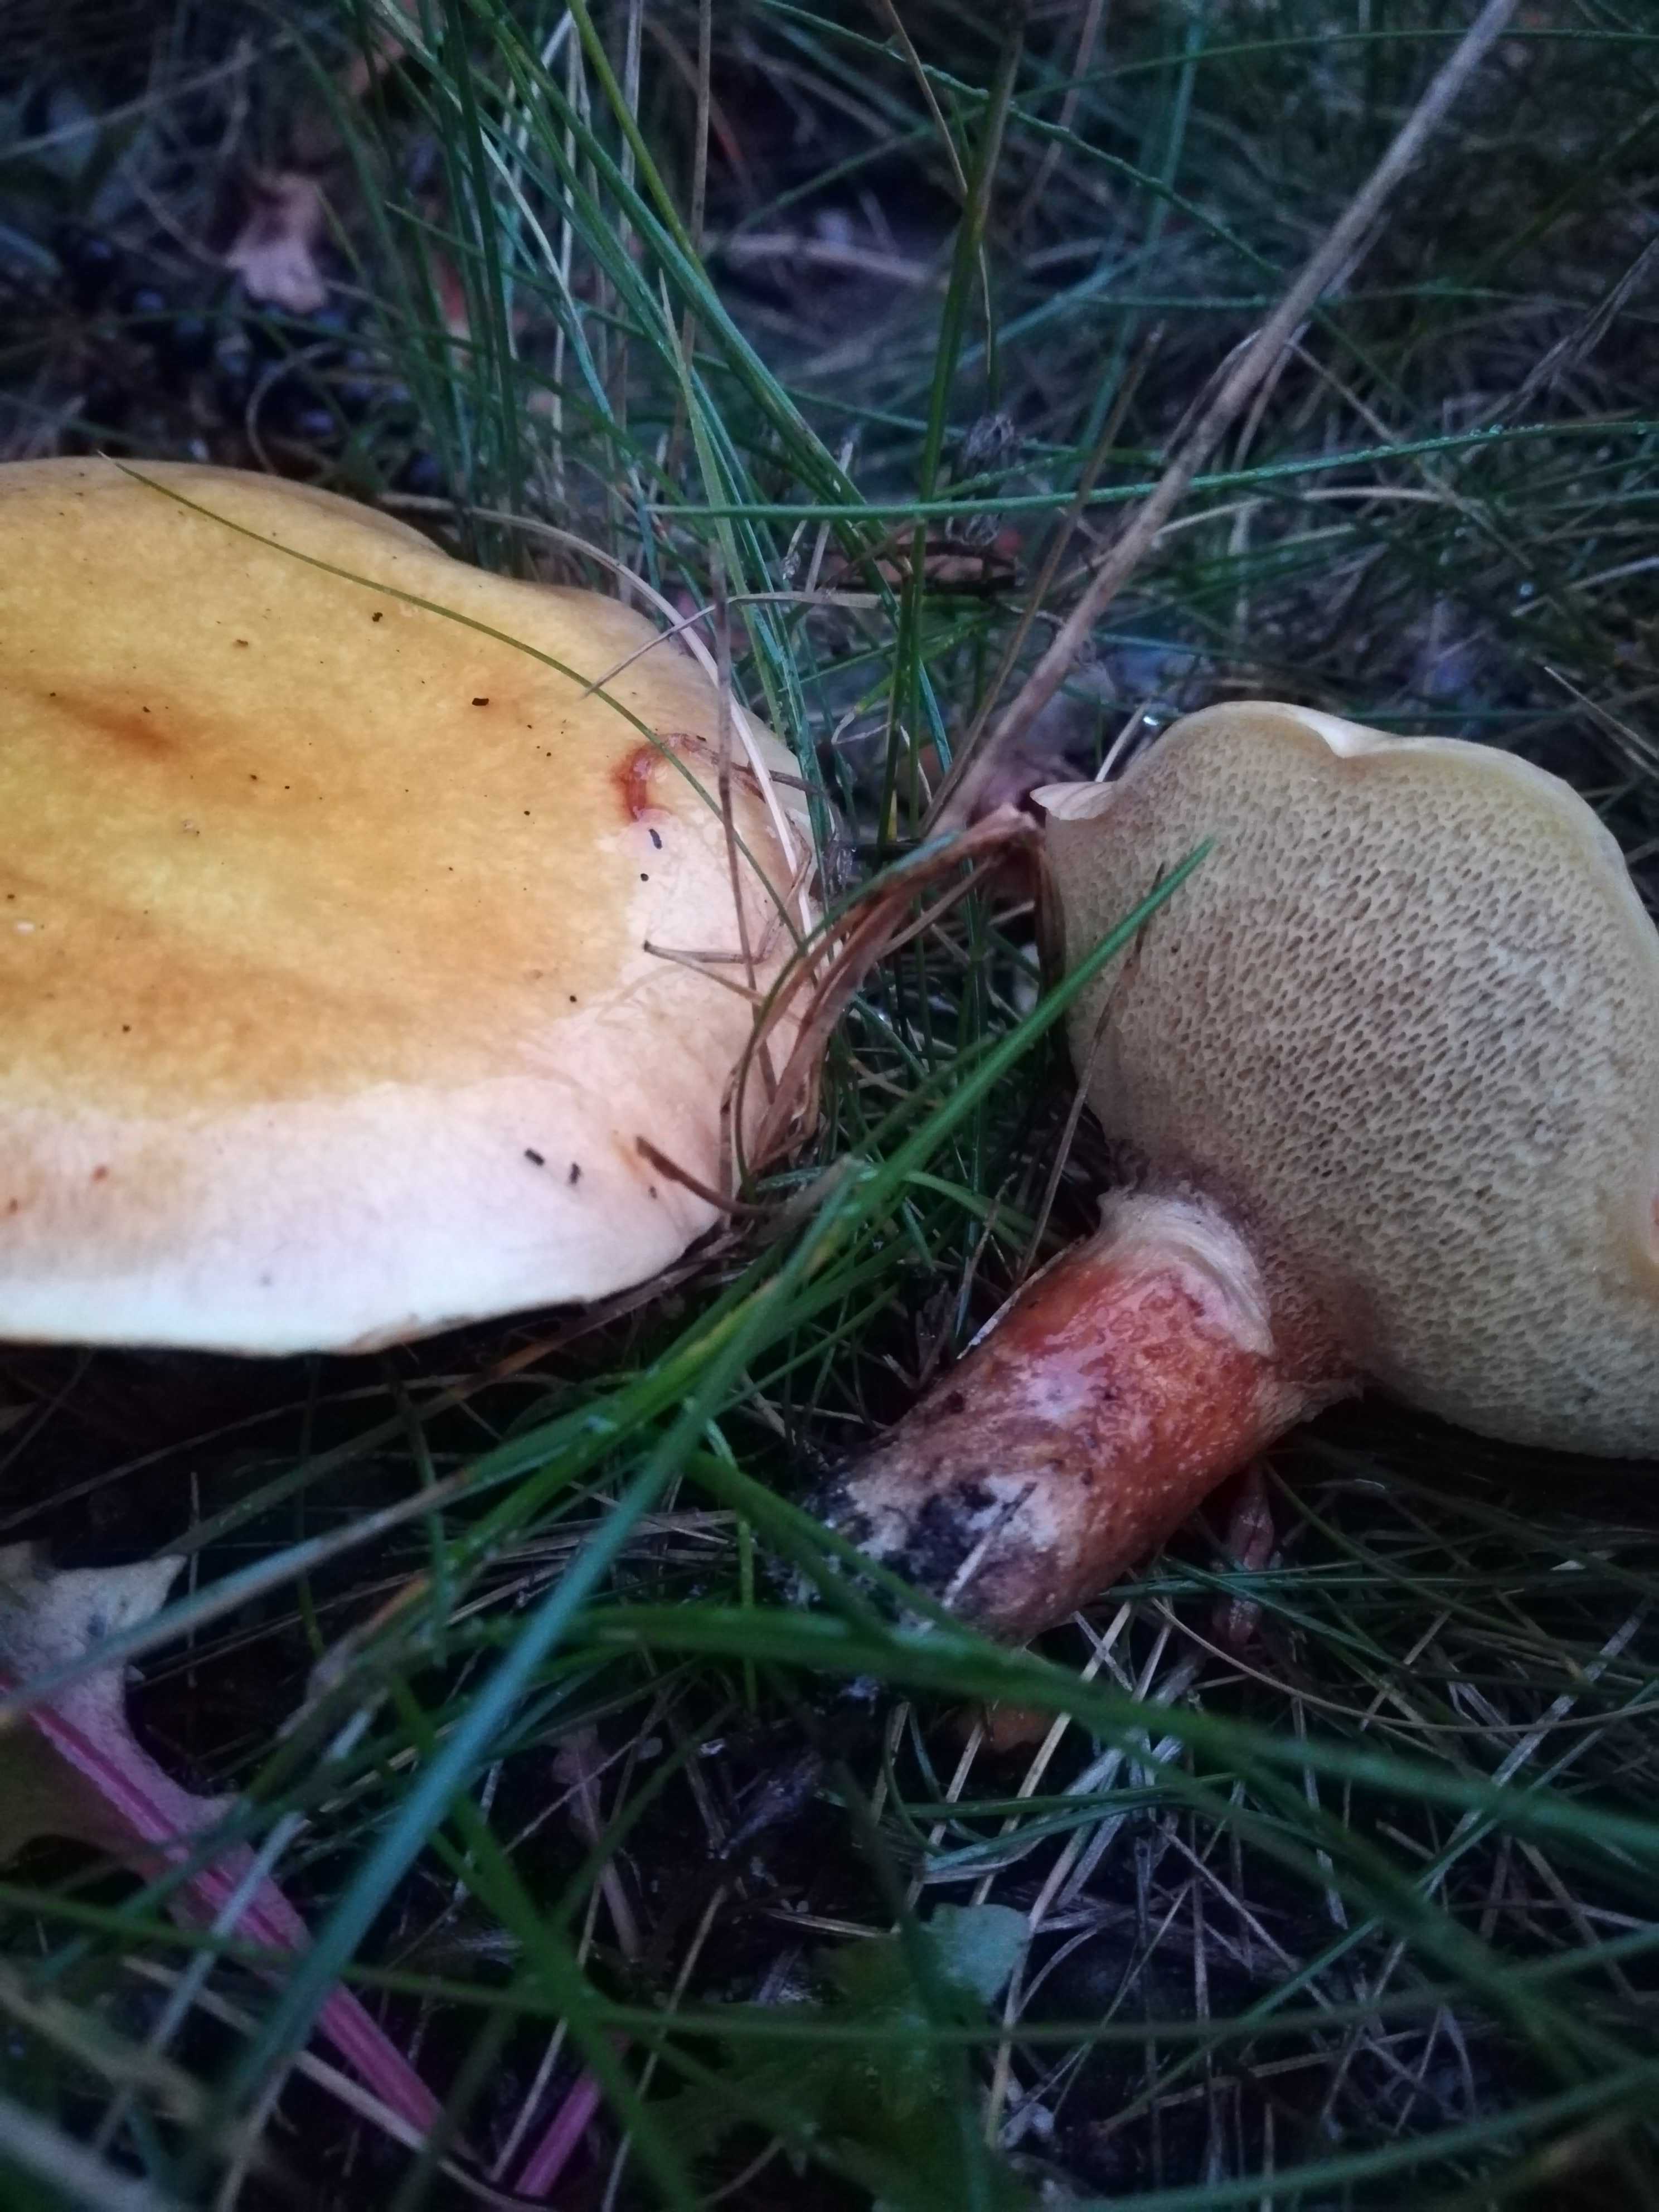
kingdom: Fungi
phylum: Basidiomycota
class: Agaricomycetes
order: Boletales
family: Suillaceae
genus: Suillus
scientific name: Suillus grevillei
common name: lærke-slimrørhat
